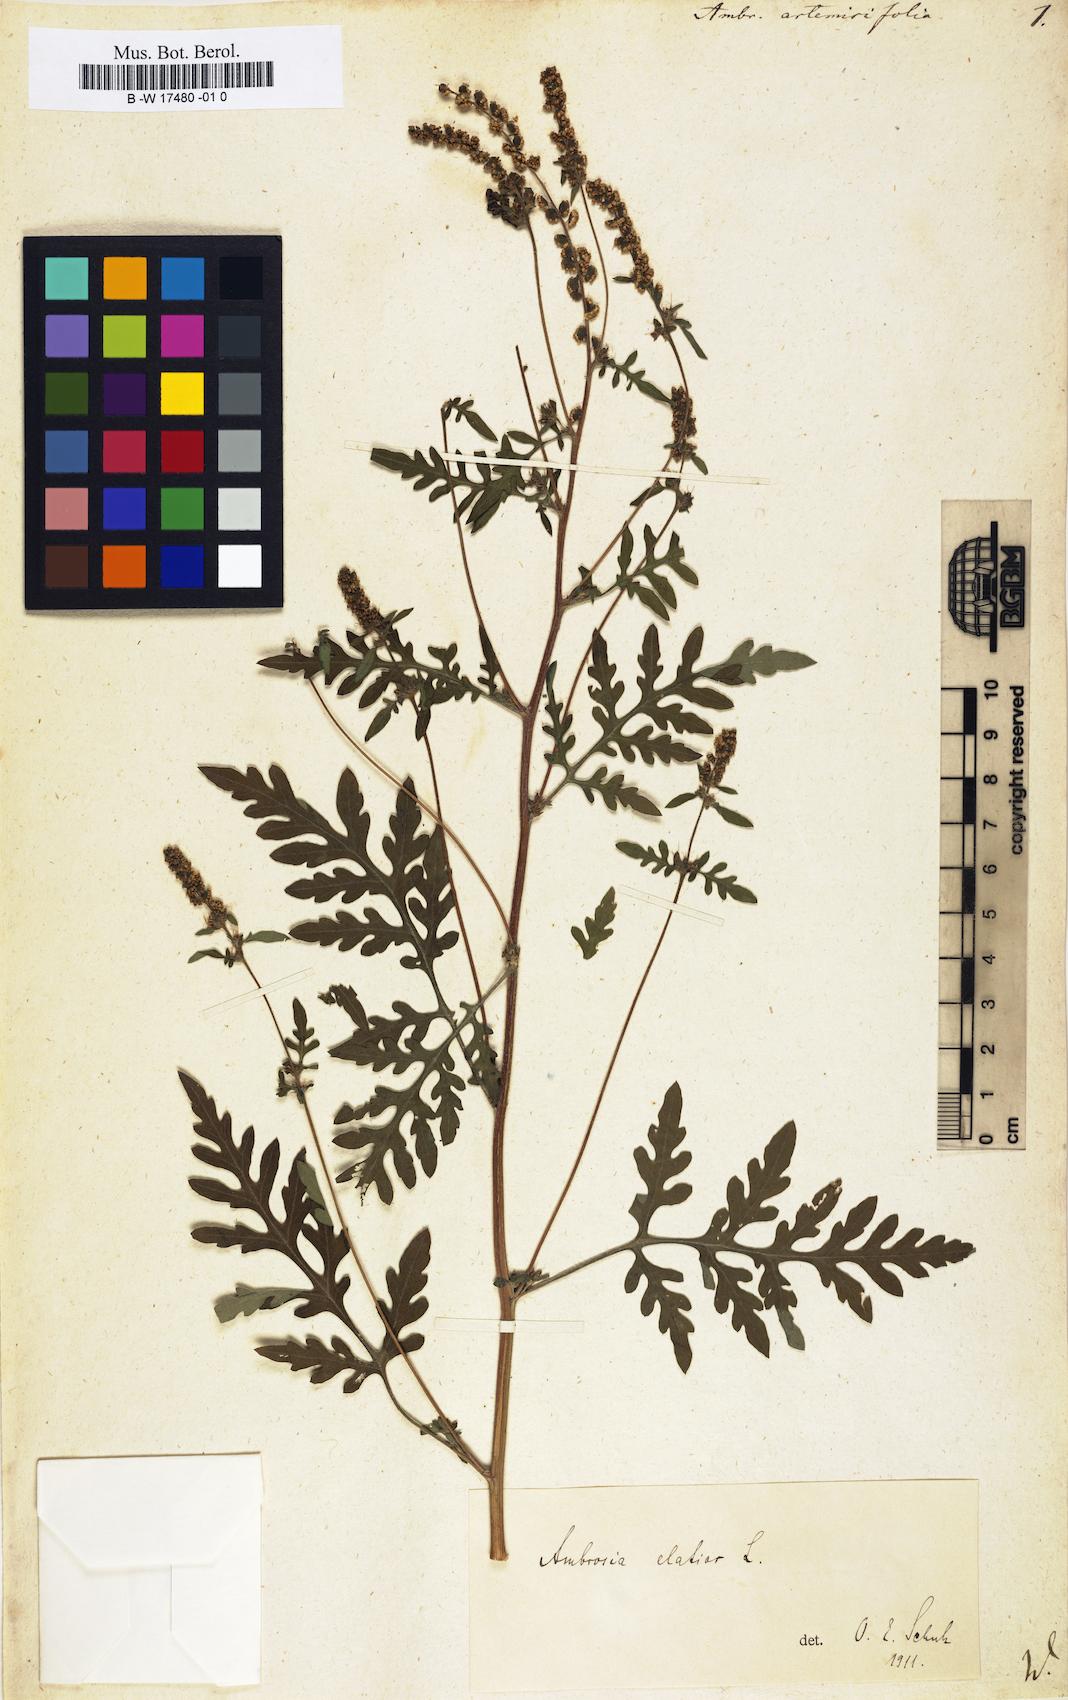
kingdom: Plantae
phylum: Tracheophyta
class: Magnoliopsida
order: Asterales
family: Asteraceae
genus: Ambrosia
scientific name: Ambrosia artemisiifolia
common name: Annual ragweed
